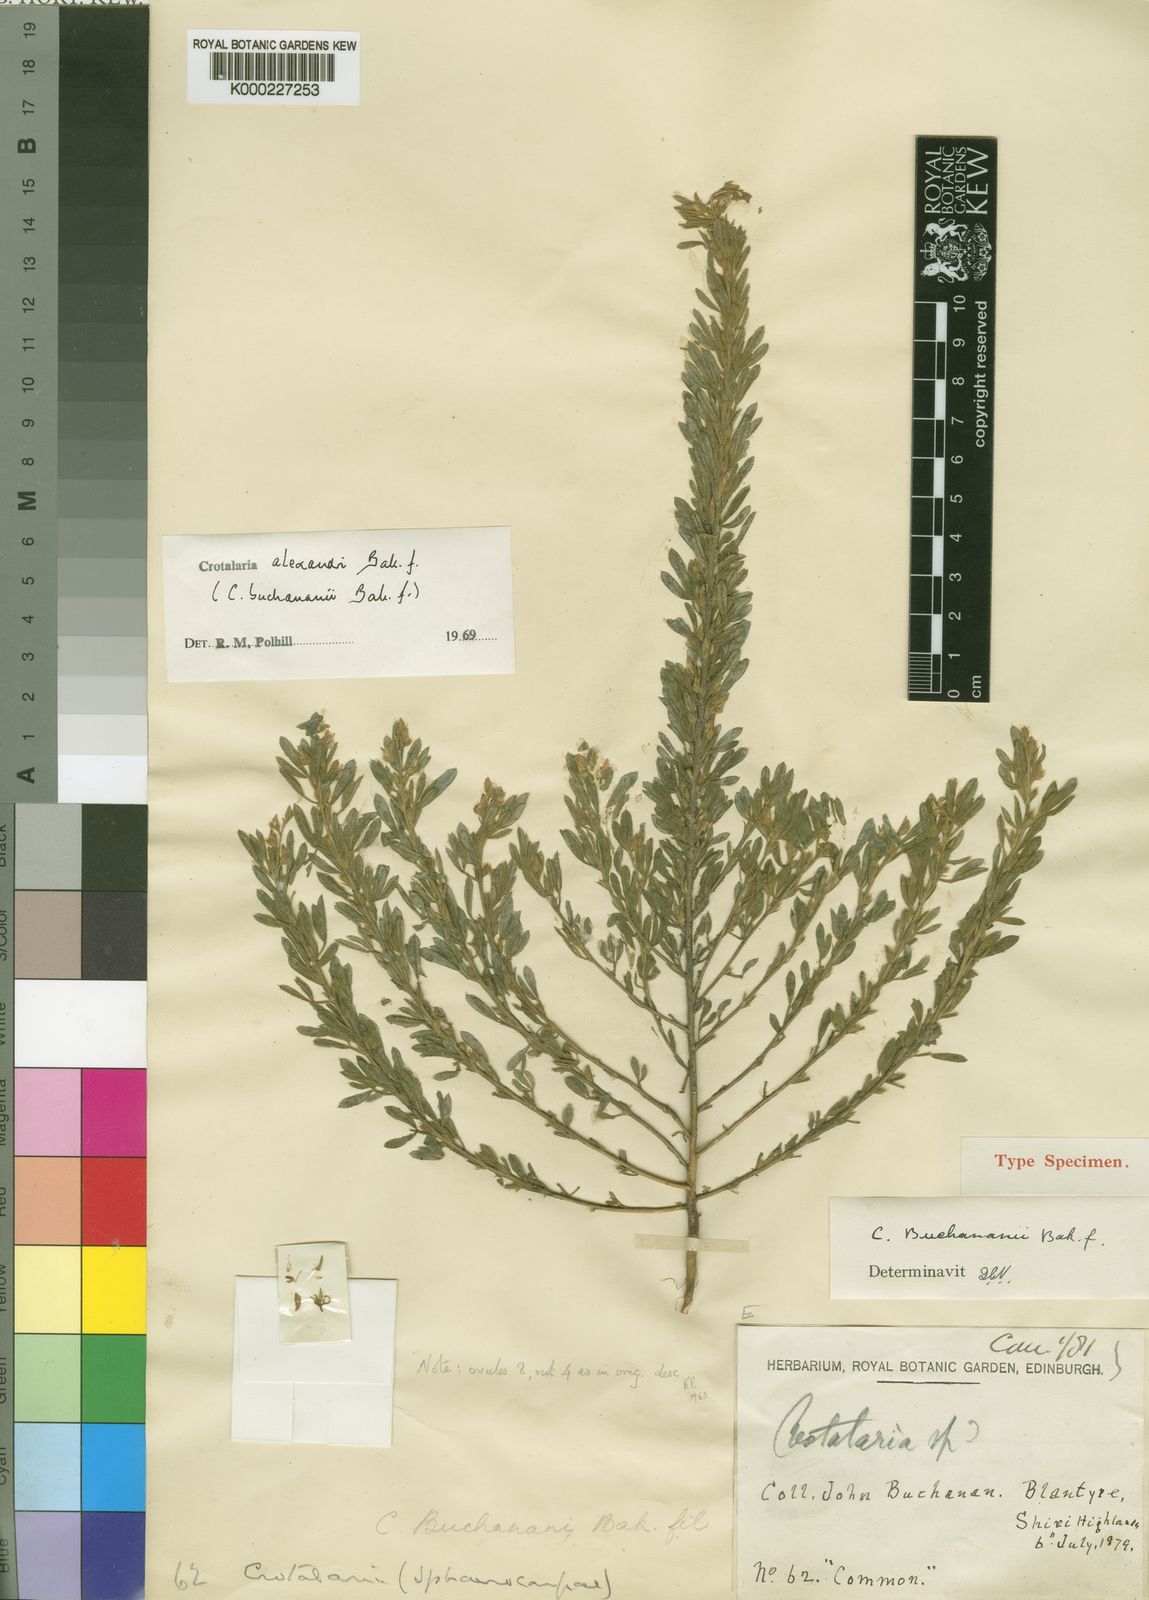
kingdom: Plantae
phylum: Tracheophyta
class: Magnoliopsida
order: Fabales
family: Fabaceae
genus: Crotalaria
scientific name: Crotalaria alexandri
